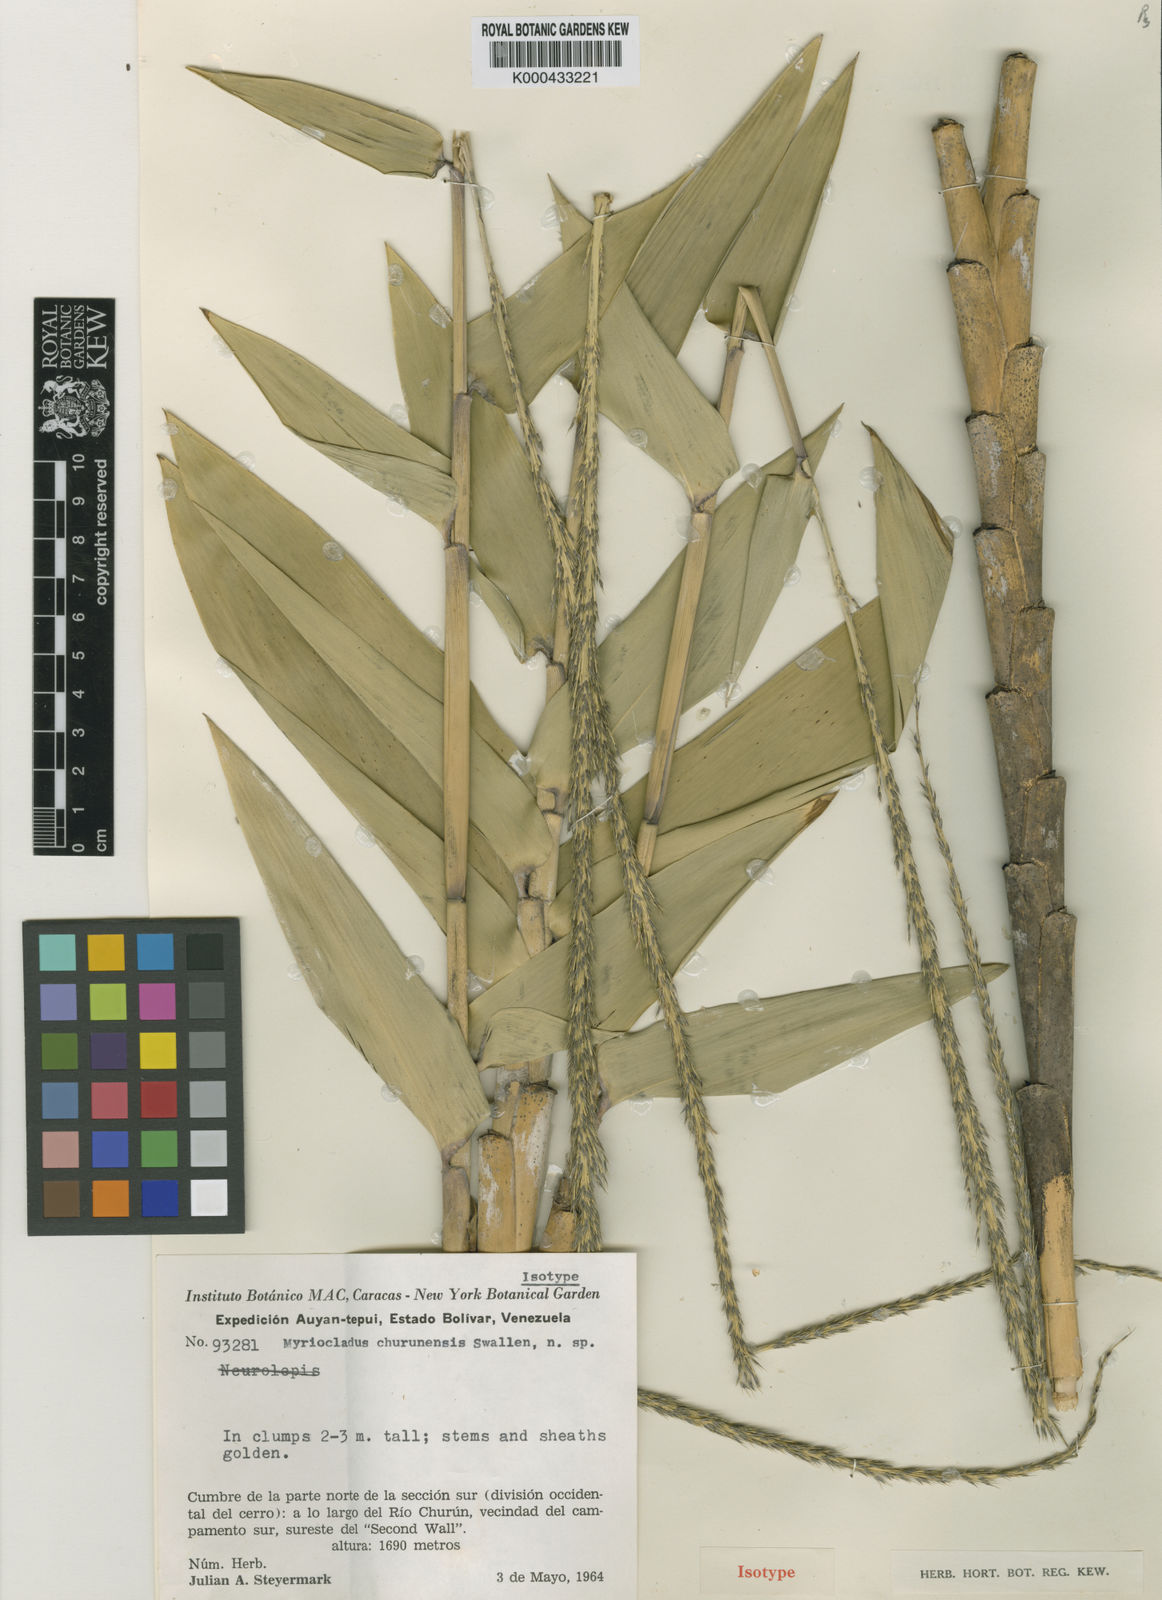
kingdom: Plantae
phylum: Tracheophyta
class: Liliopsida
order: Poales
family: Poaceae
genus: Myriocladus
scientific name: Myriocladus churunensis
